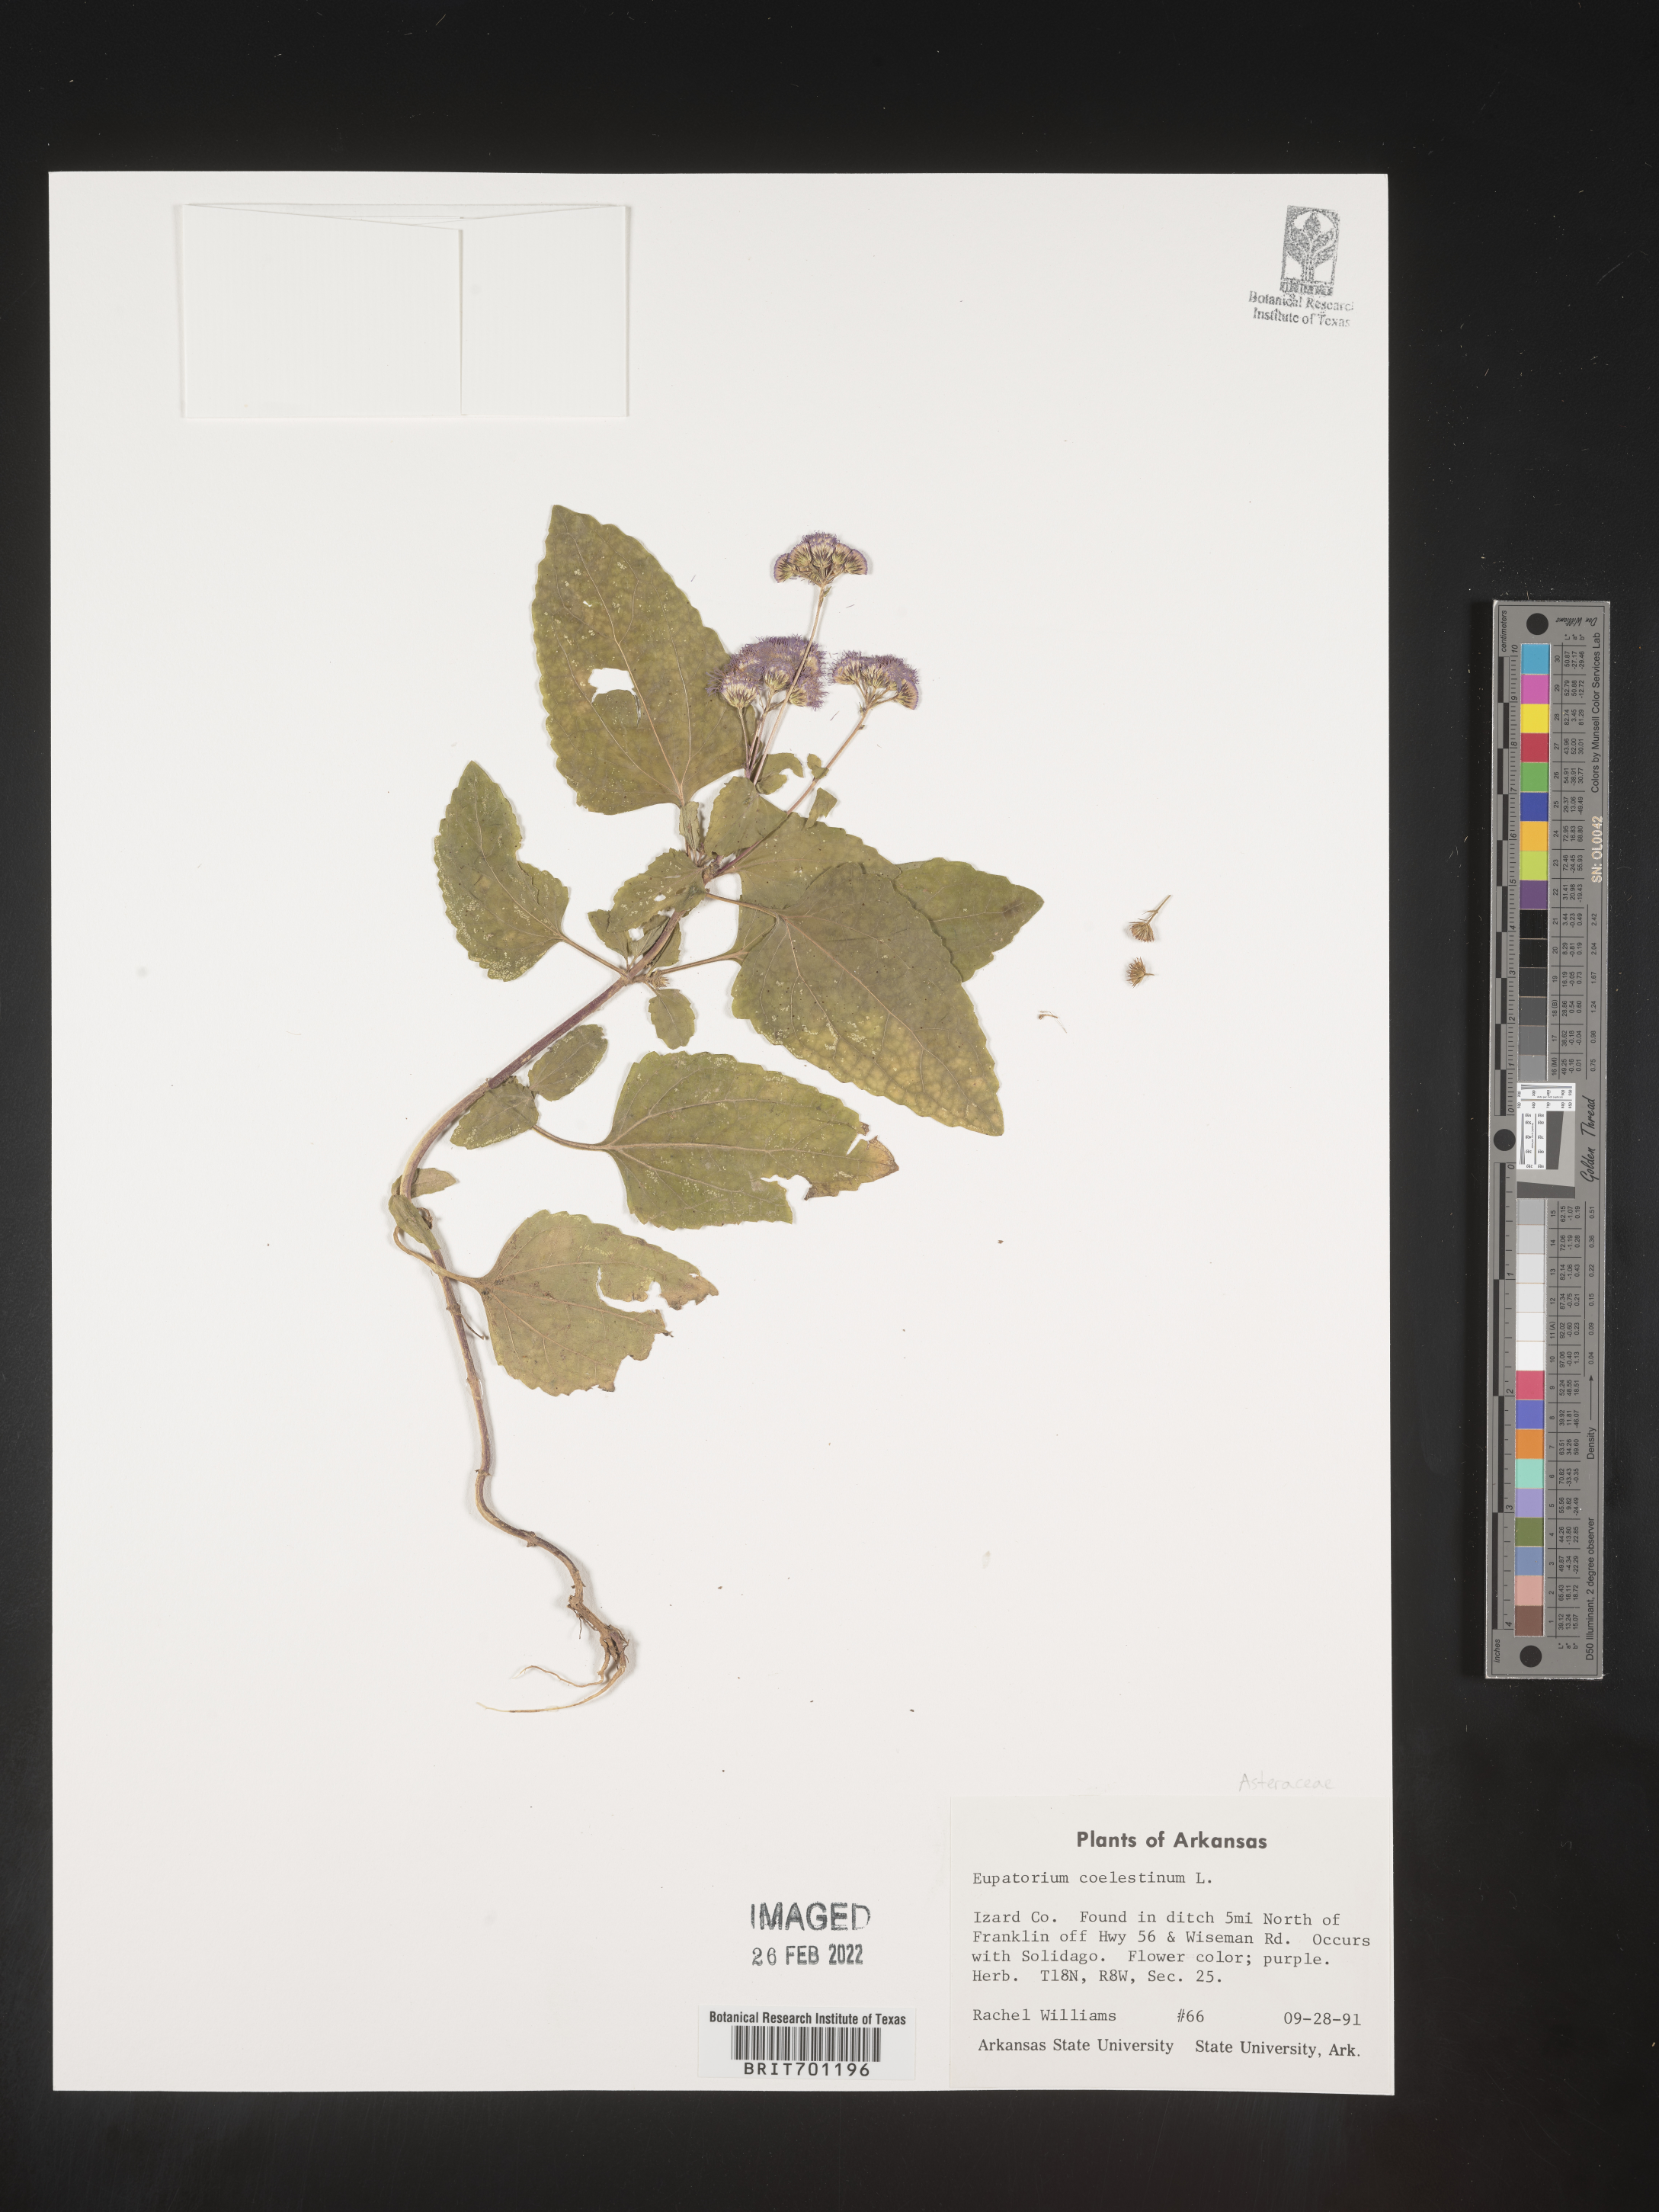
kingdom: Plantae
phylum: Tracheophyta
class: Magnoliopsida
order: Asterales
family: Asteraceae
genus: Conoclinium
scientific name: Conoclinium coelestinum
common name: Blue mistflower
